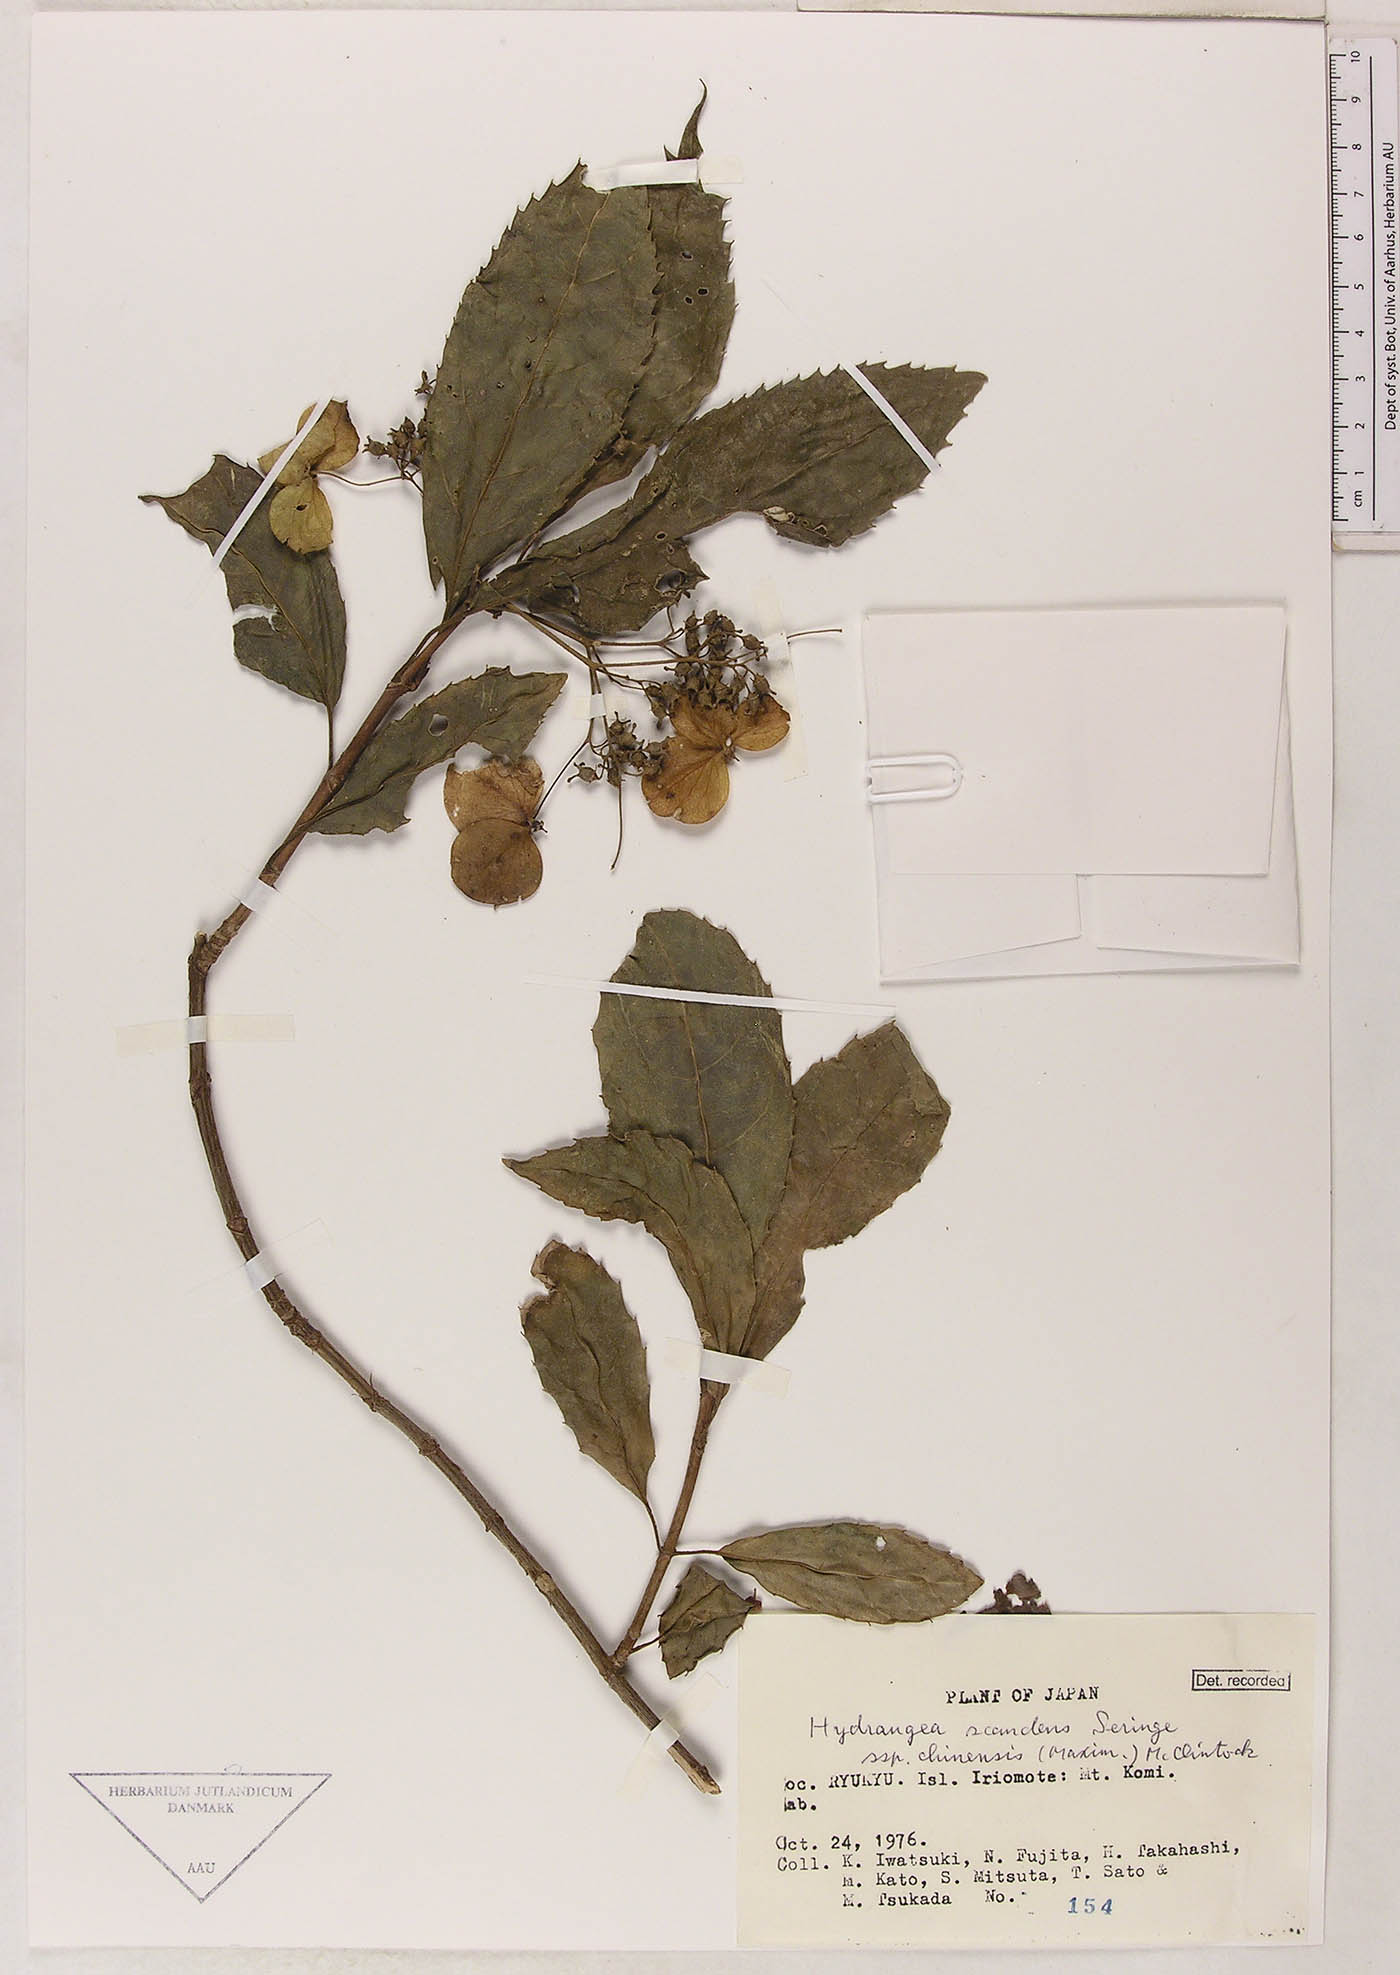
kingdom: Plantae
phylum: Tracheophyta
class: Magnoliopsida
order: Cornales
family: Hydrangeaceae
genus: Hydrangea
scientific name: Hydrangea chinensis
